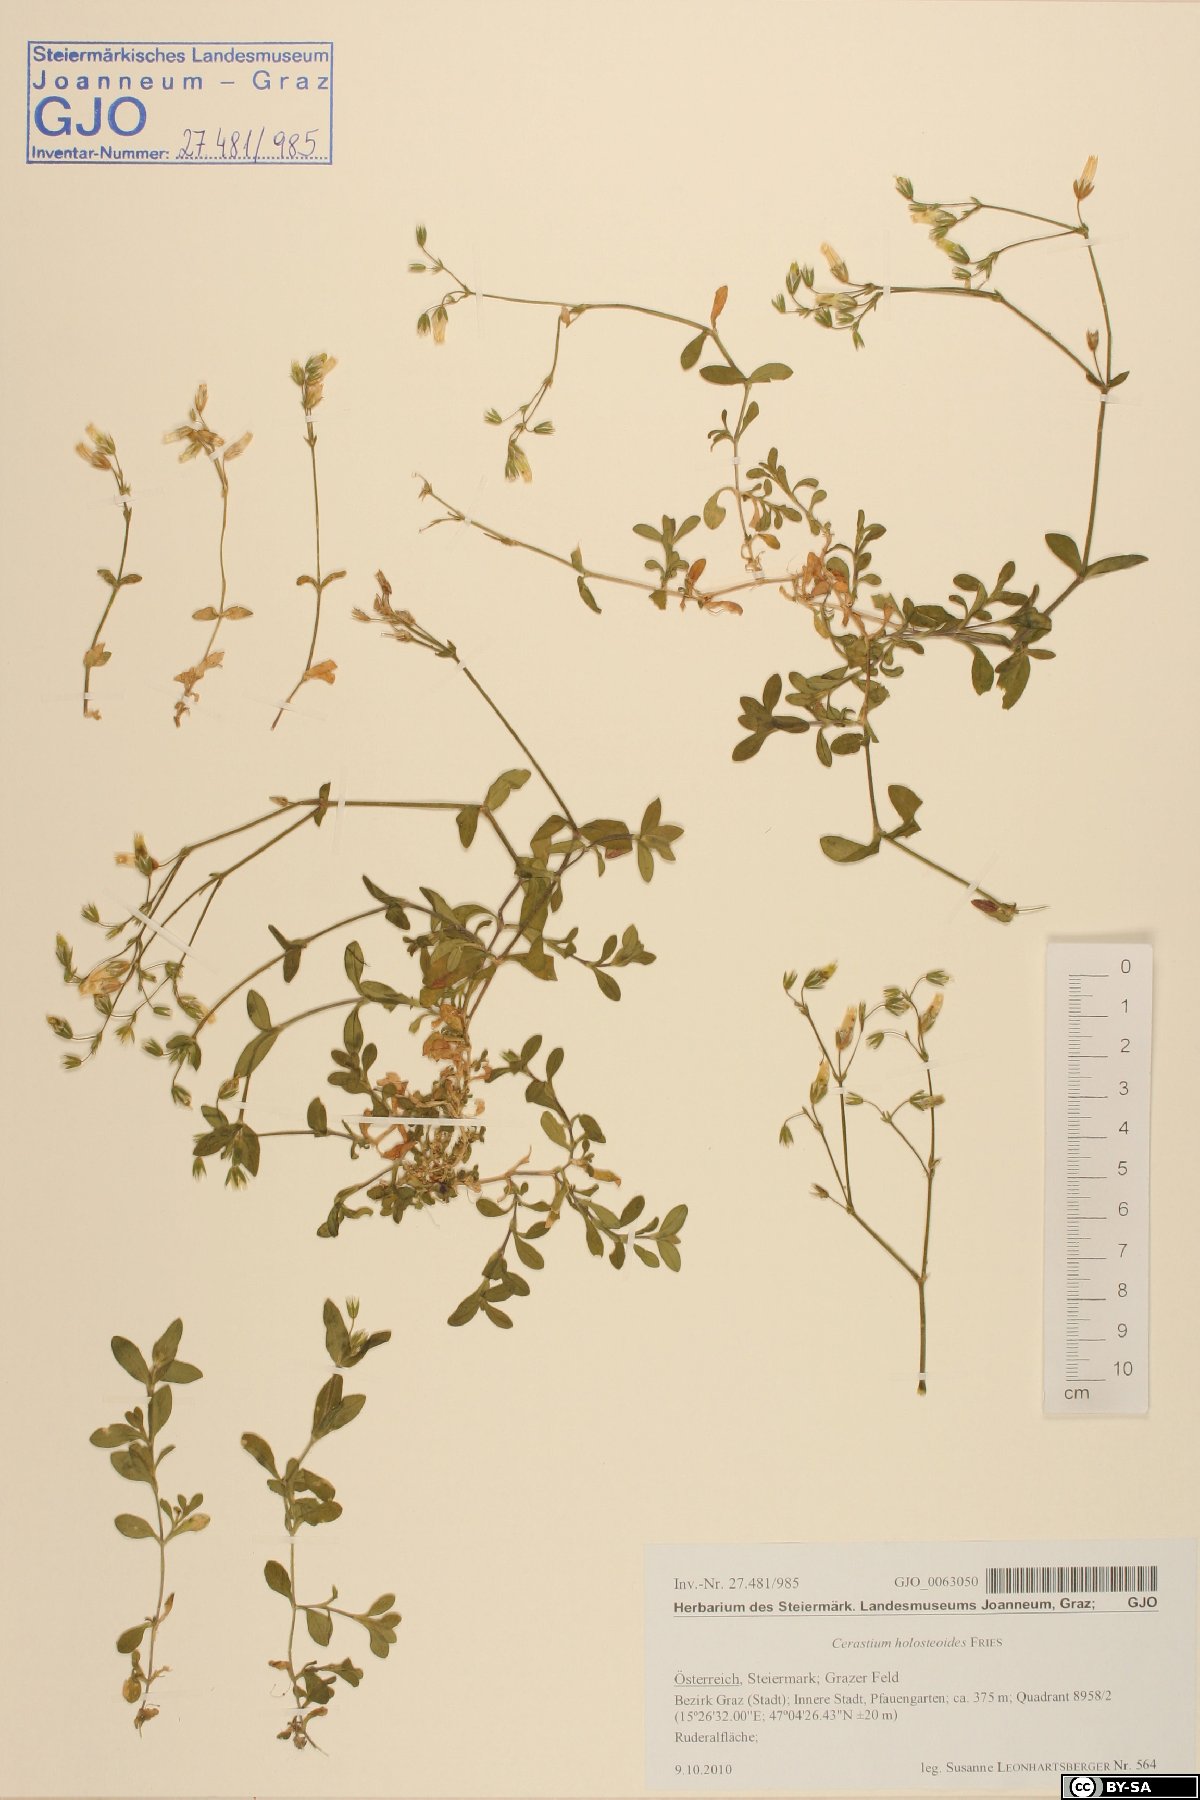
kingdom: Plantae
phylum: Tracheophyta
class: Magnoliopsida
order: Caryophyllales
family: Caryophyllaceae
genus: Cerastium
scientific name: Cerastium holosteoides
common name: Big chickweed
